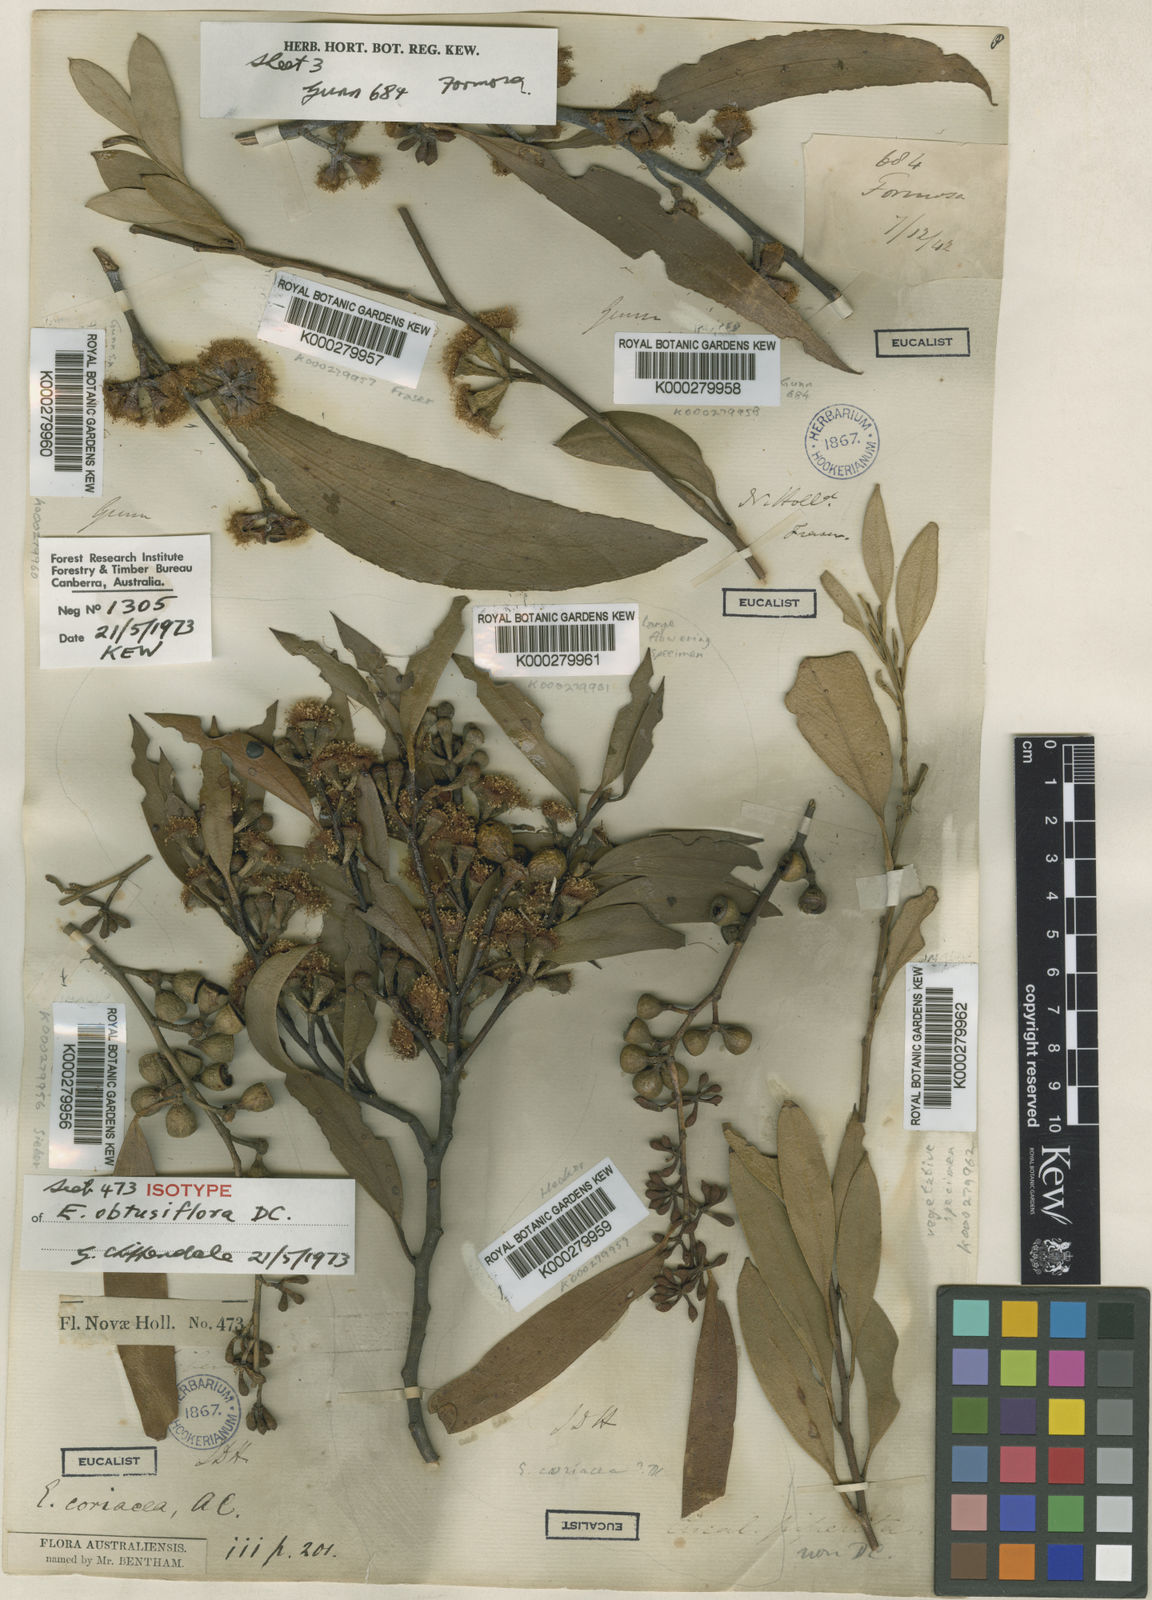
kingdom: Plantae
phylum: Tracheophyta
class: Magnoliopsida
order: Myrtales
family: Myrtaceae
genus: Eucalyptus
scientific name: Eucalyptus obtusiflora
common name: Dongara-mallee
